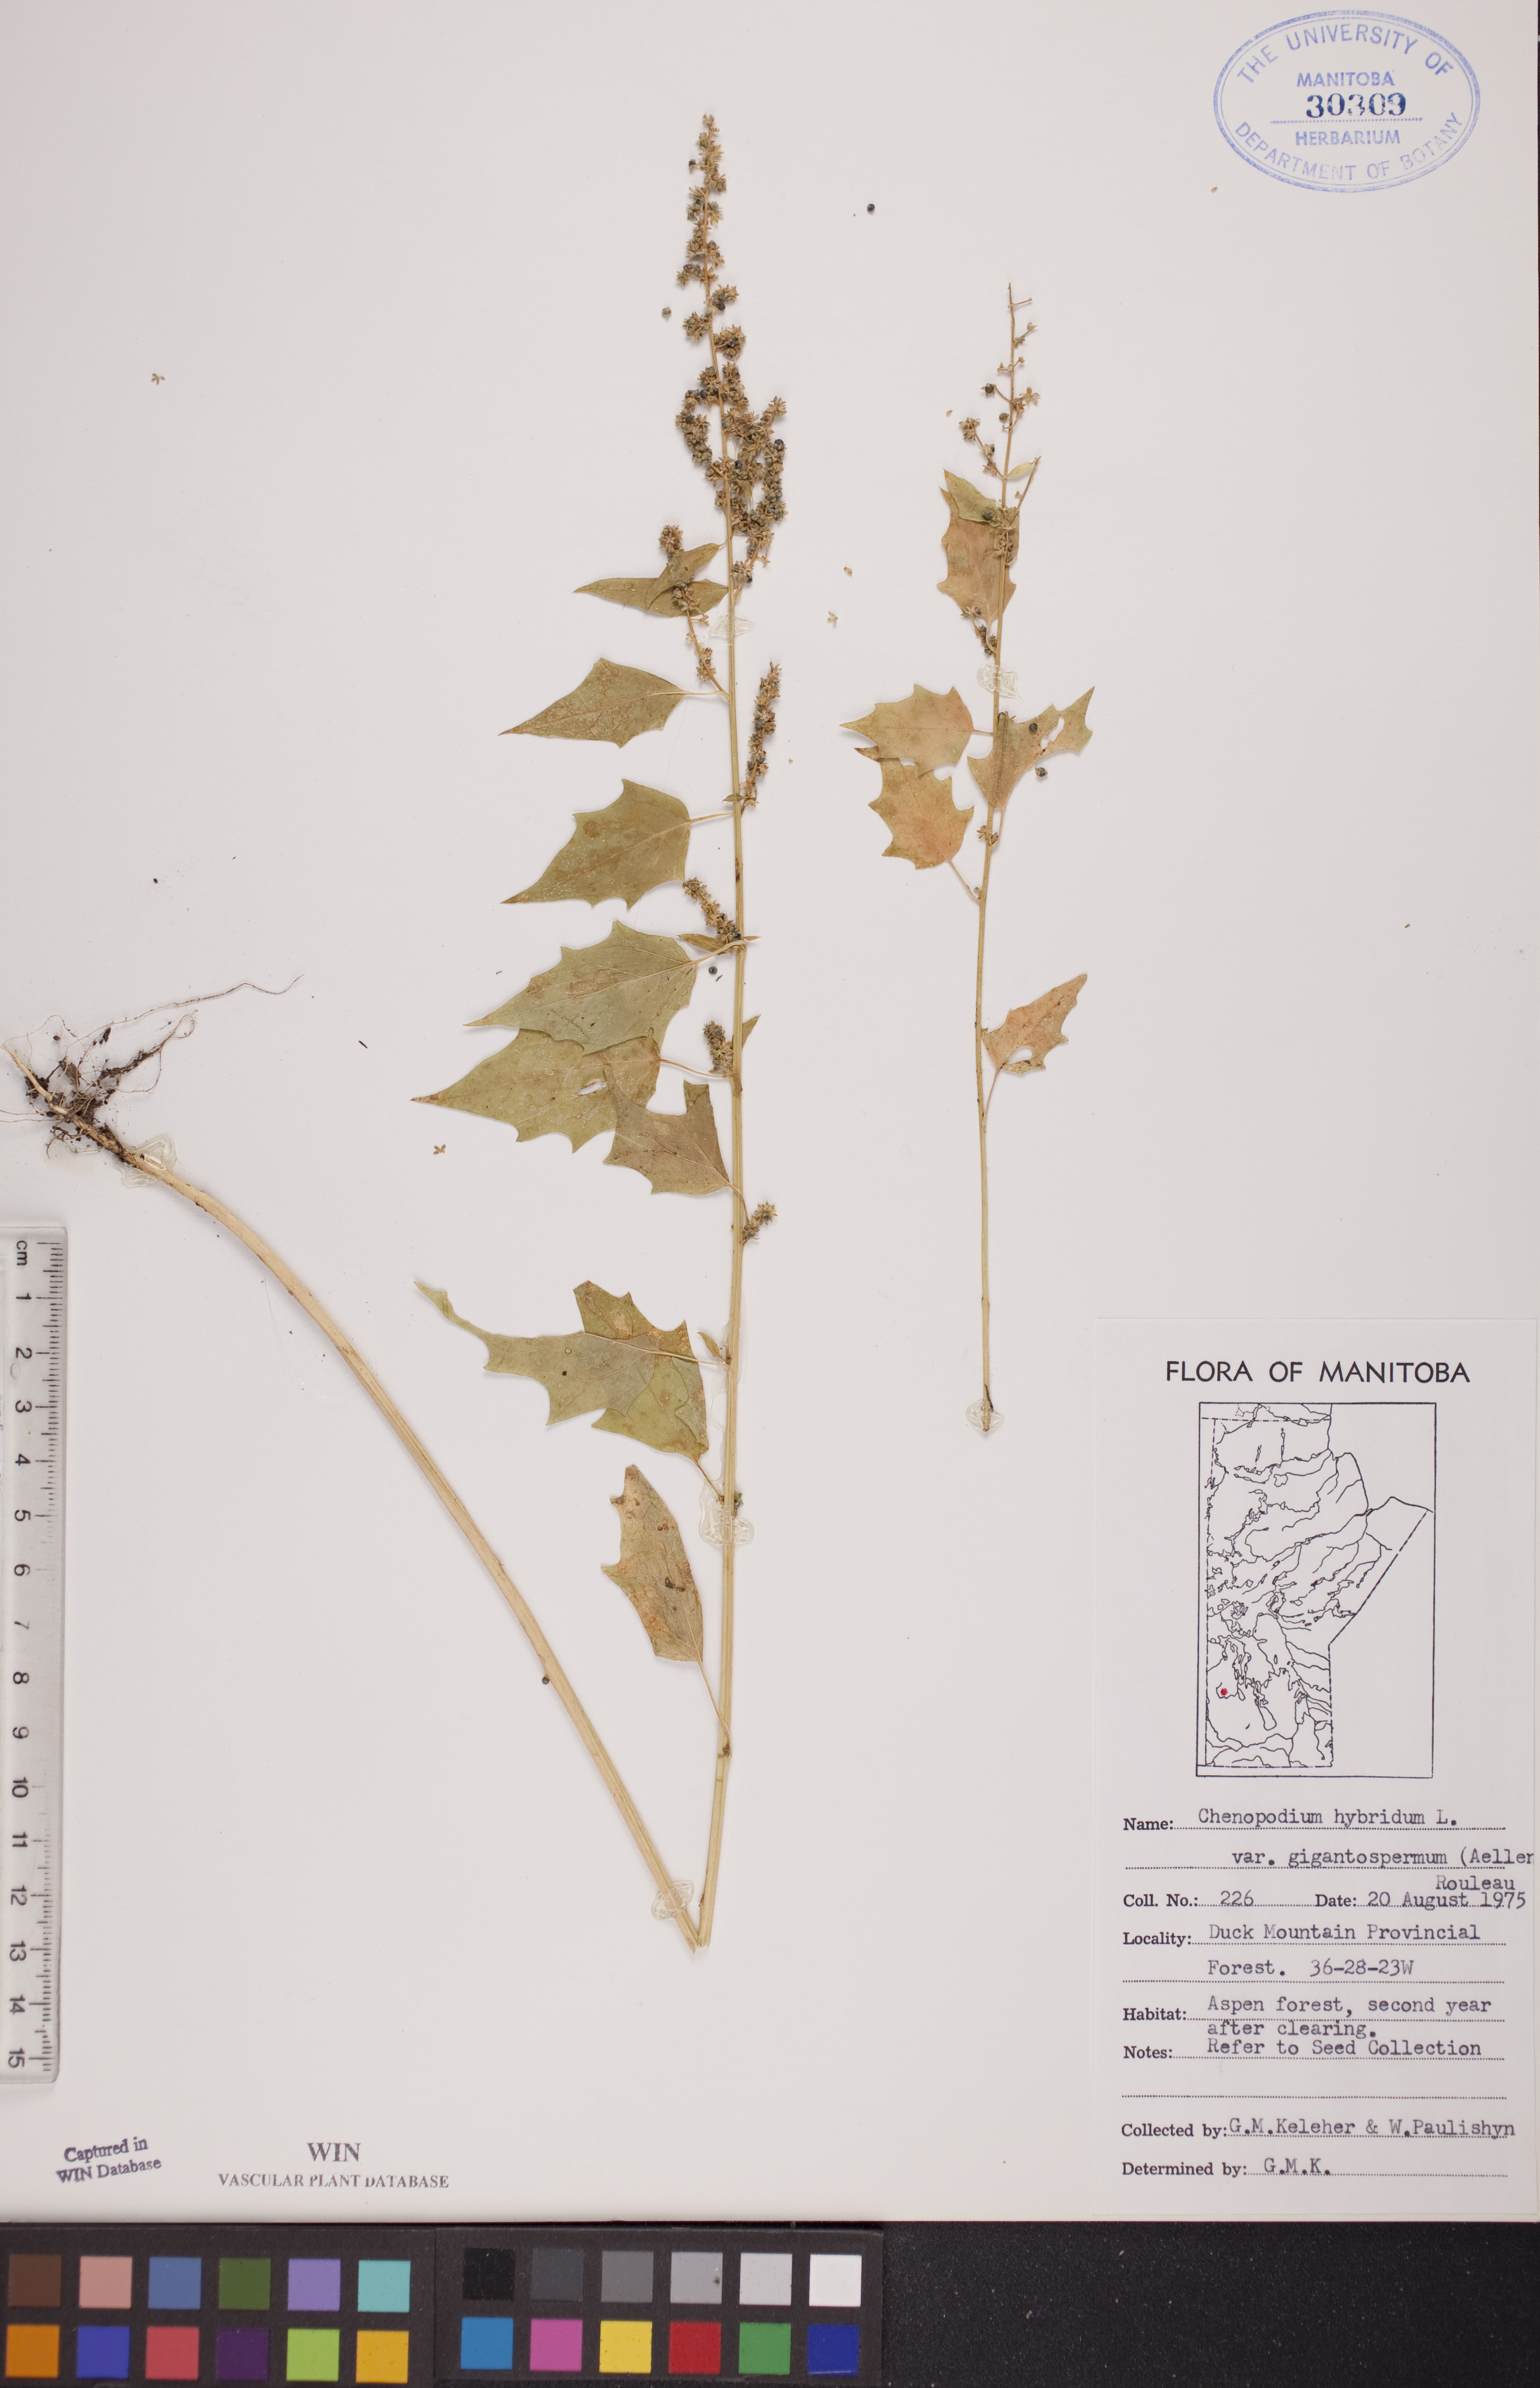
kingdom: Plantae
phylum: Tracheophyta
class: Magnoliopsida
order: Caryophyllales
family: Amaranthaceae
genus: Chenopodiastrum
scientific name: Chenopodiastrum simplex
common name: Large-seed goosefoot
